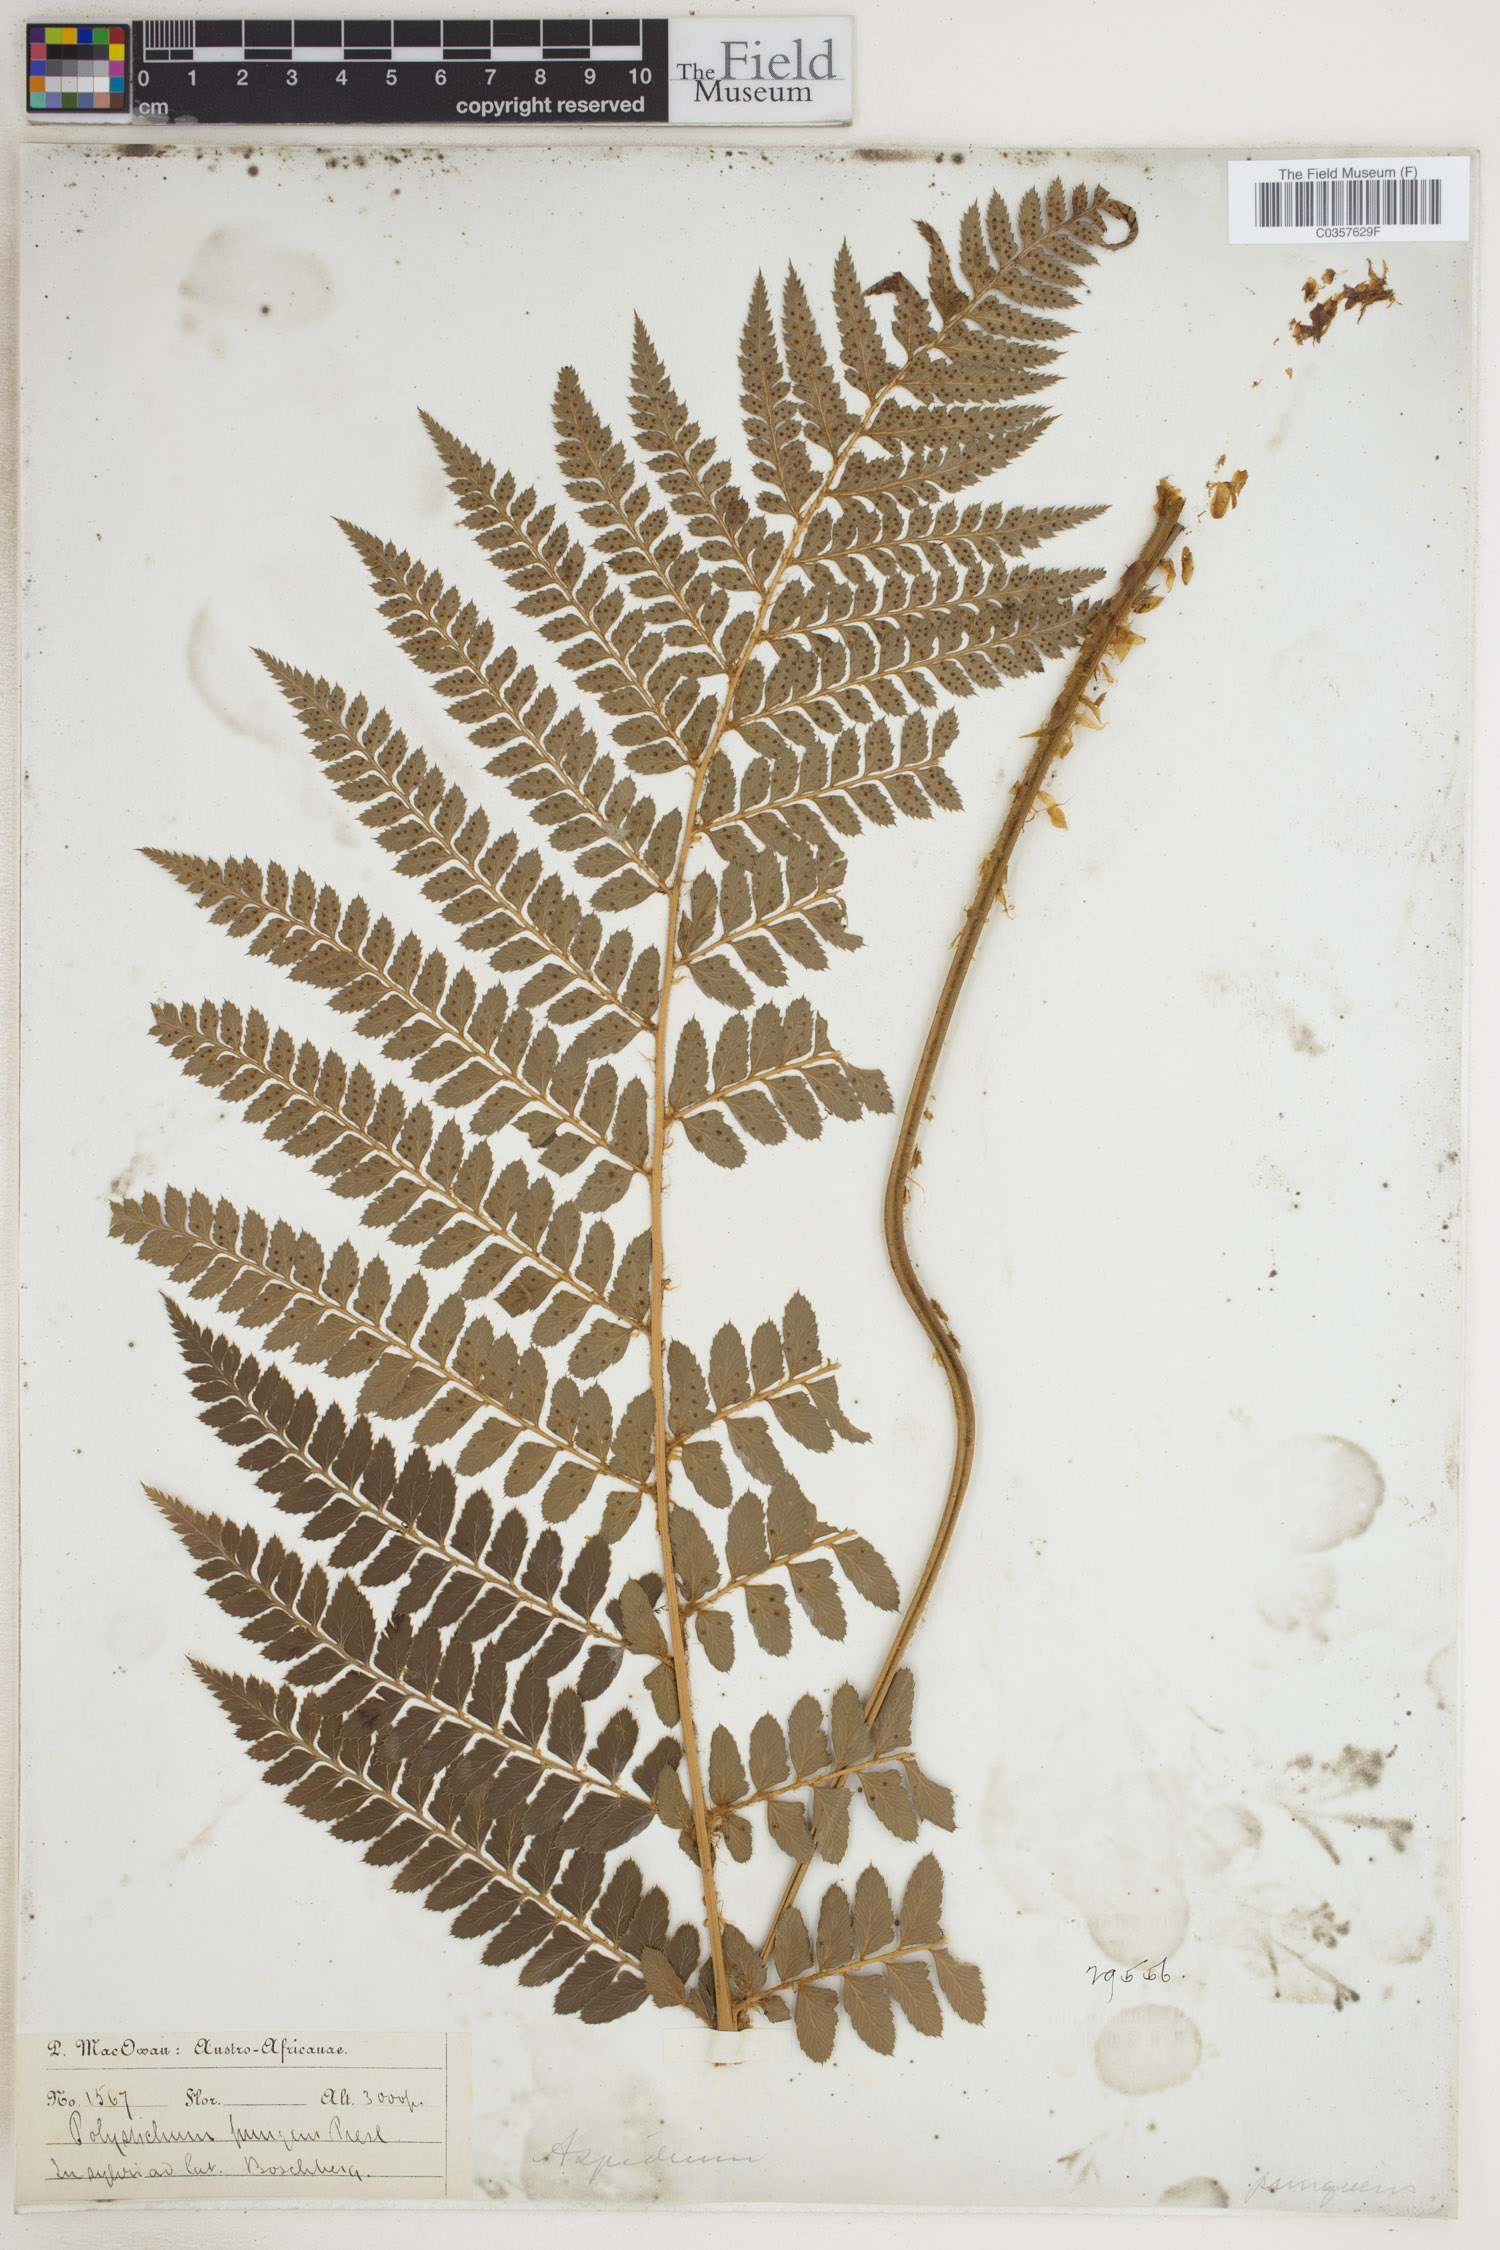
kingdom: Plantae
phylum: Tracheophyta
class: Polypodiopsida
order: Polypodiales
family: Dryopteridaceae
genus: Polystichum
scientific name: Polystichum pungens
